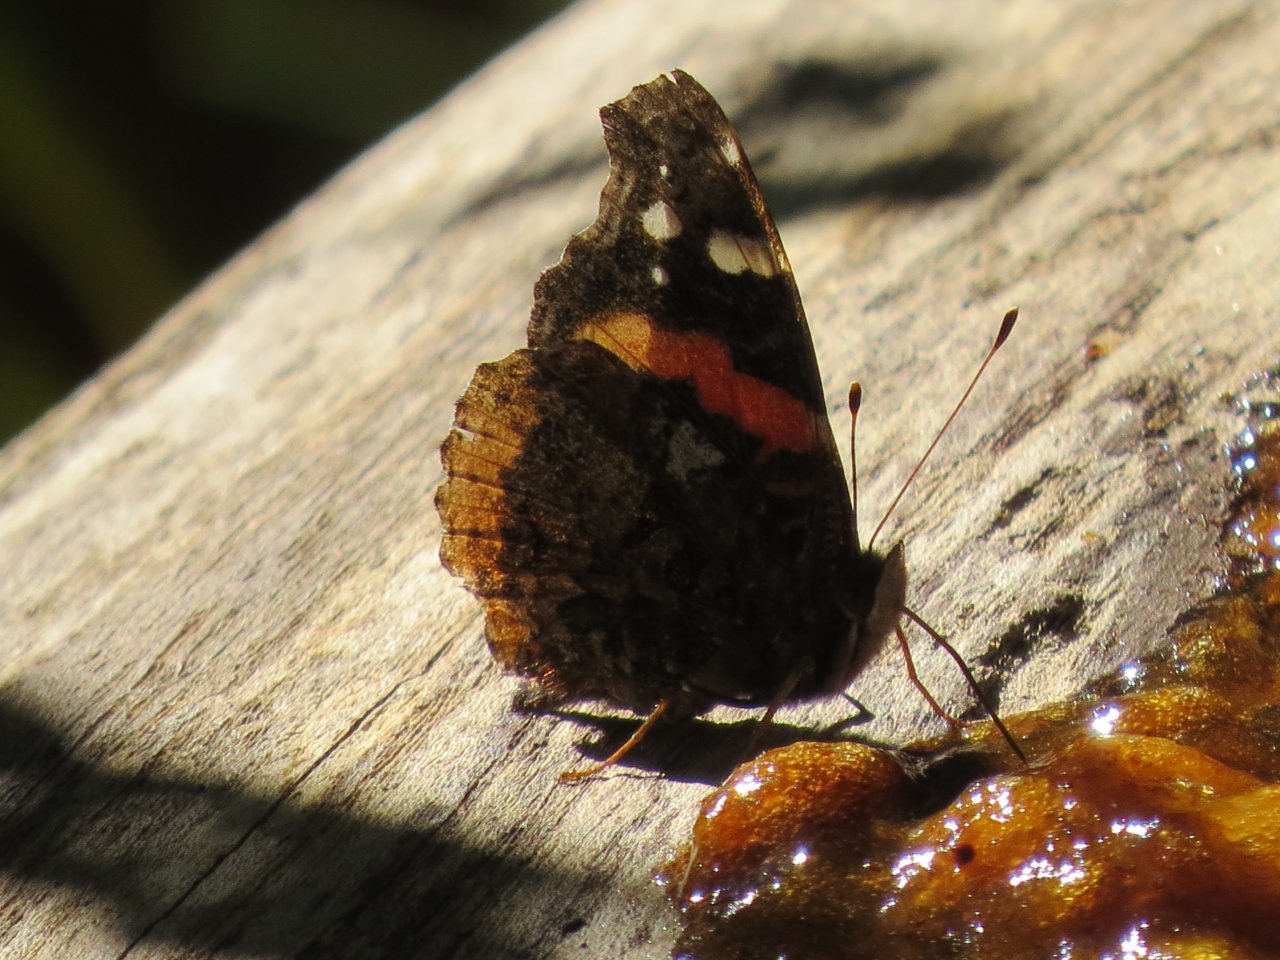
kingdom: Animalia
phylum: Arthropoda
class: Insecta
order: Lepidoptera
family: Nymphalidae
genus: Vanessa
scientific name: Vanessa atalanta
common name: Red Admiral
